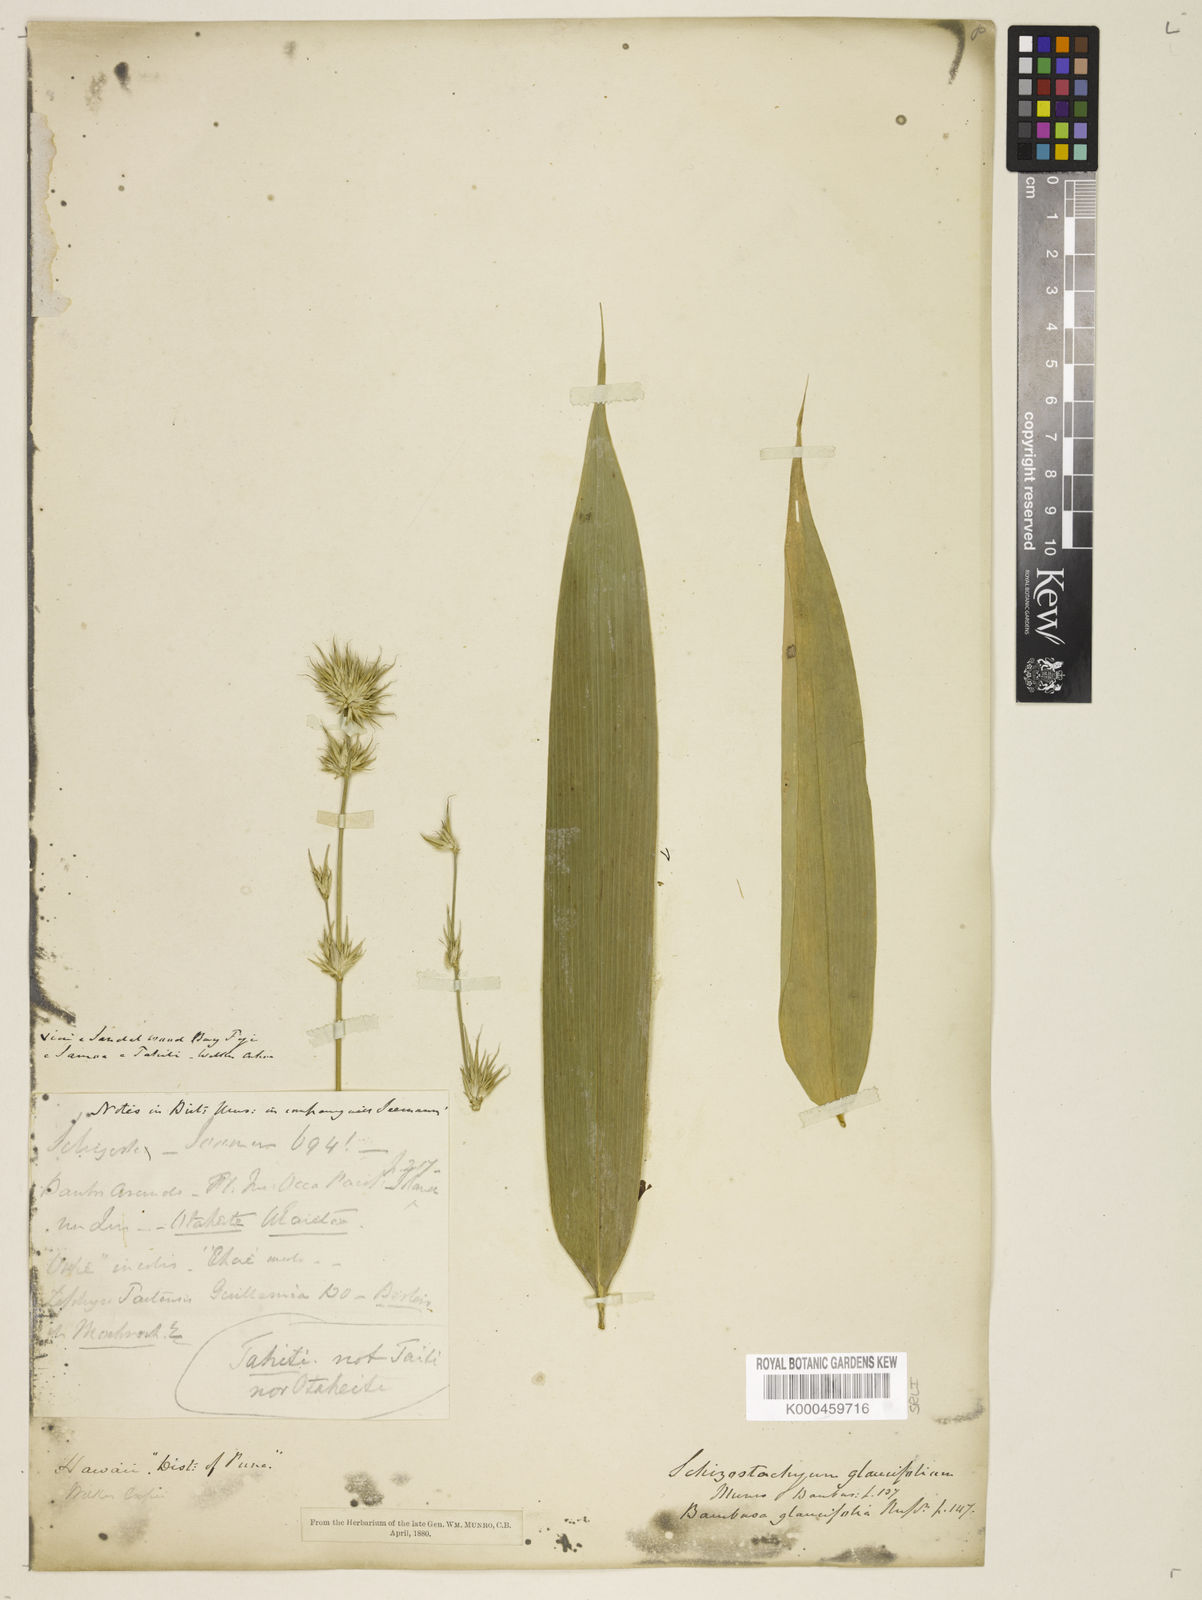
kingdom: Plantae
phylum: Tracheophyta
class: Liliopsida
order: Poales
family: Poaceae
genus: Schizostachyum
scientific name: Schizostachyum glaucifolium
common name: Polynesian 'ohe
